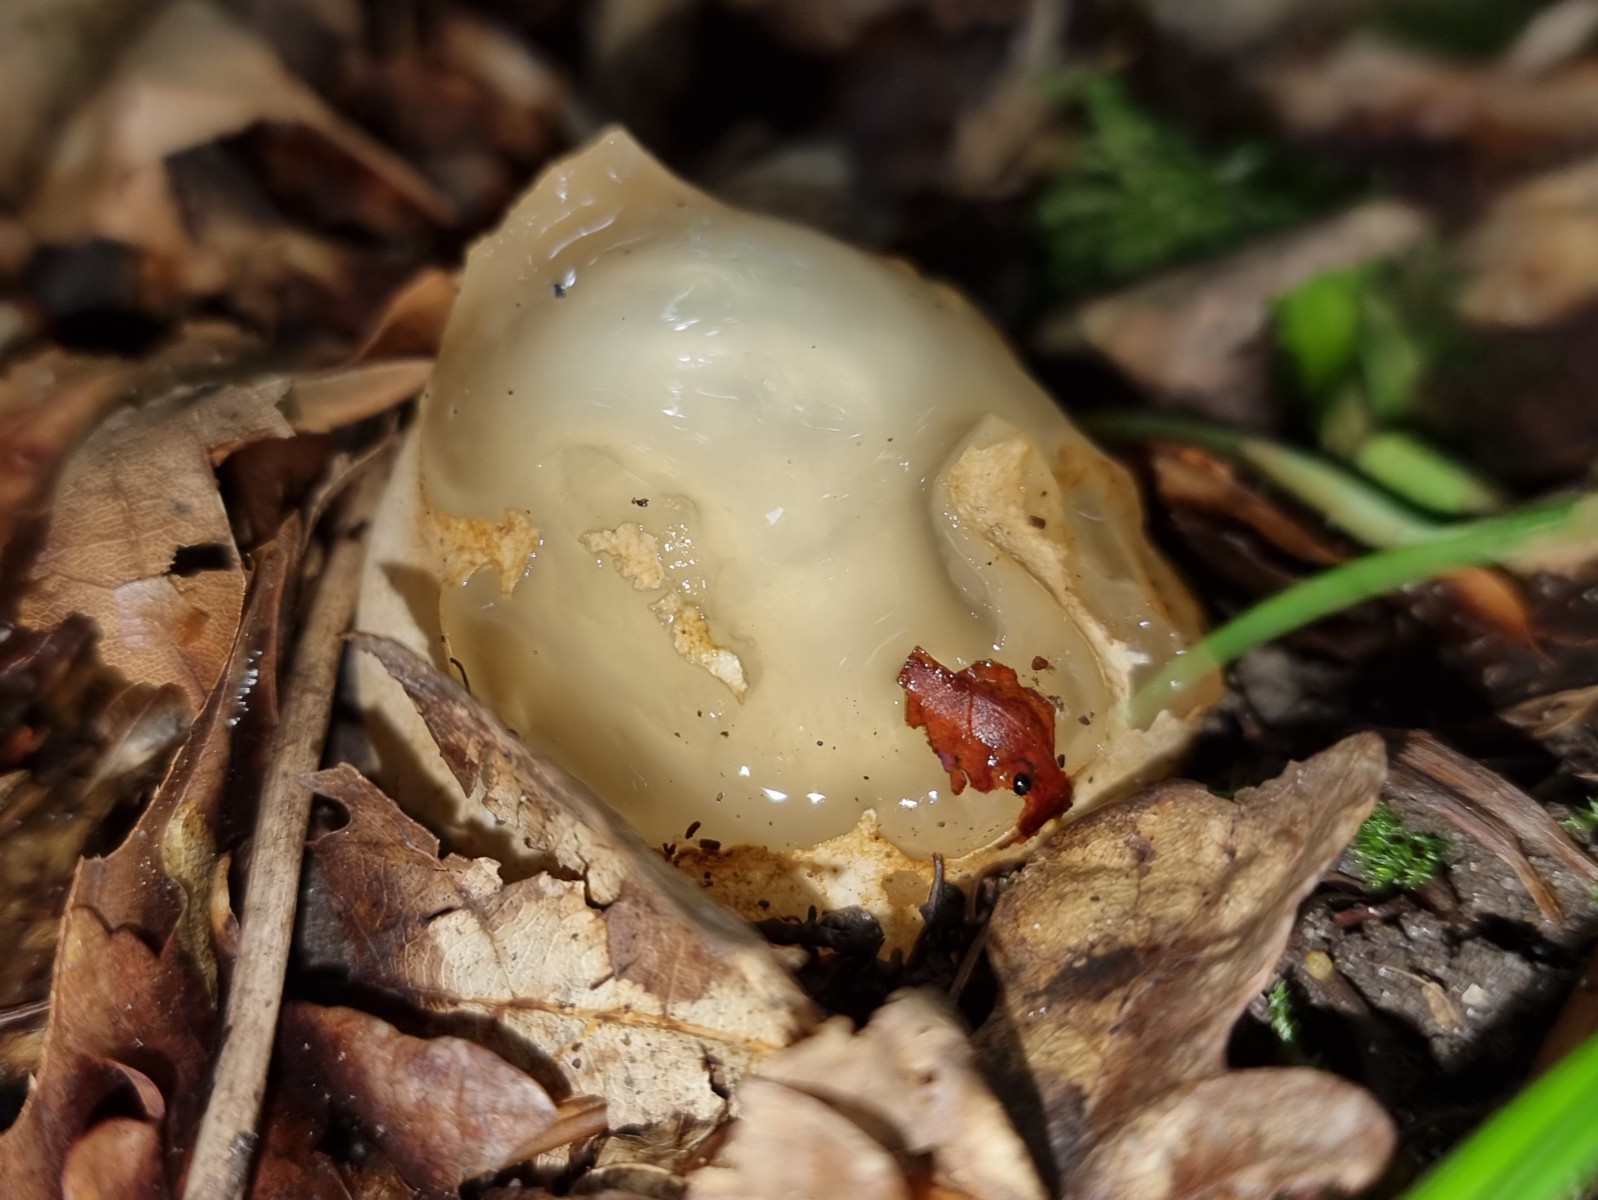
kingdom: Fungi
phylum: Basidiomycota
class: Agaricomycetes
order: Phallales
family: Phallaceae
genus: Phallus
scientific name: Phallus impudicus
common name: almindelig stinksvamp
